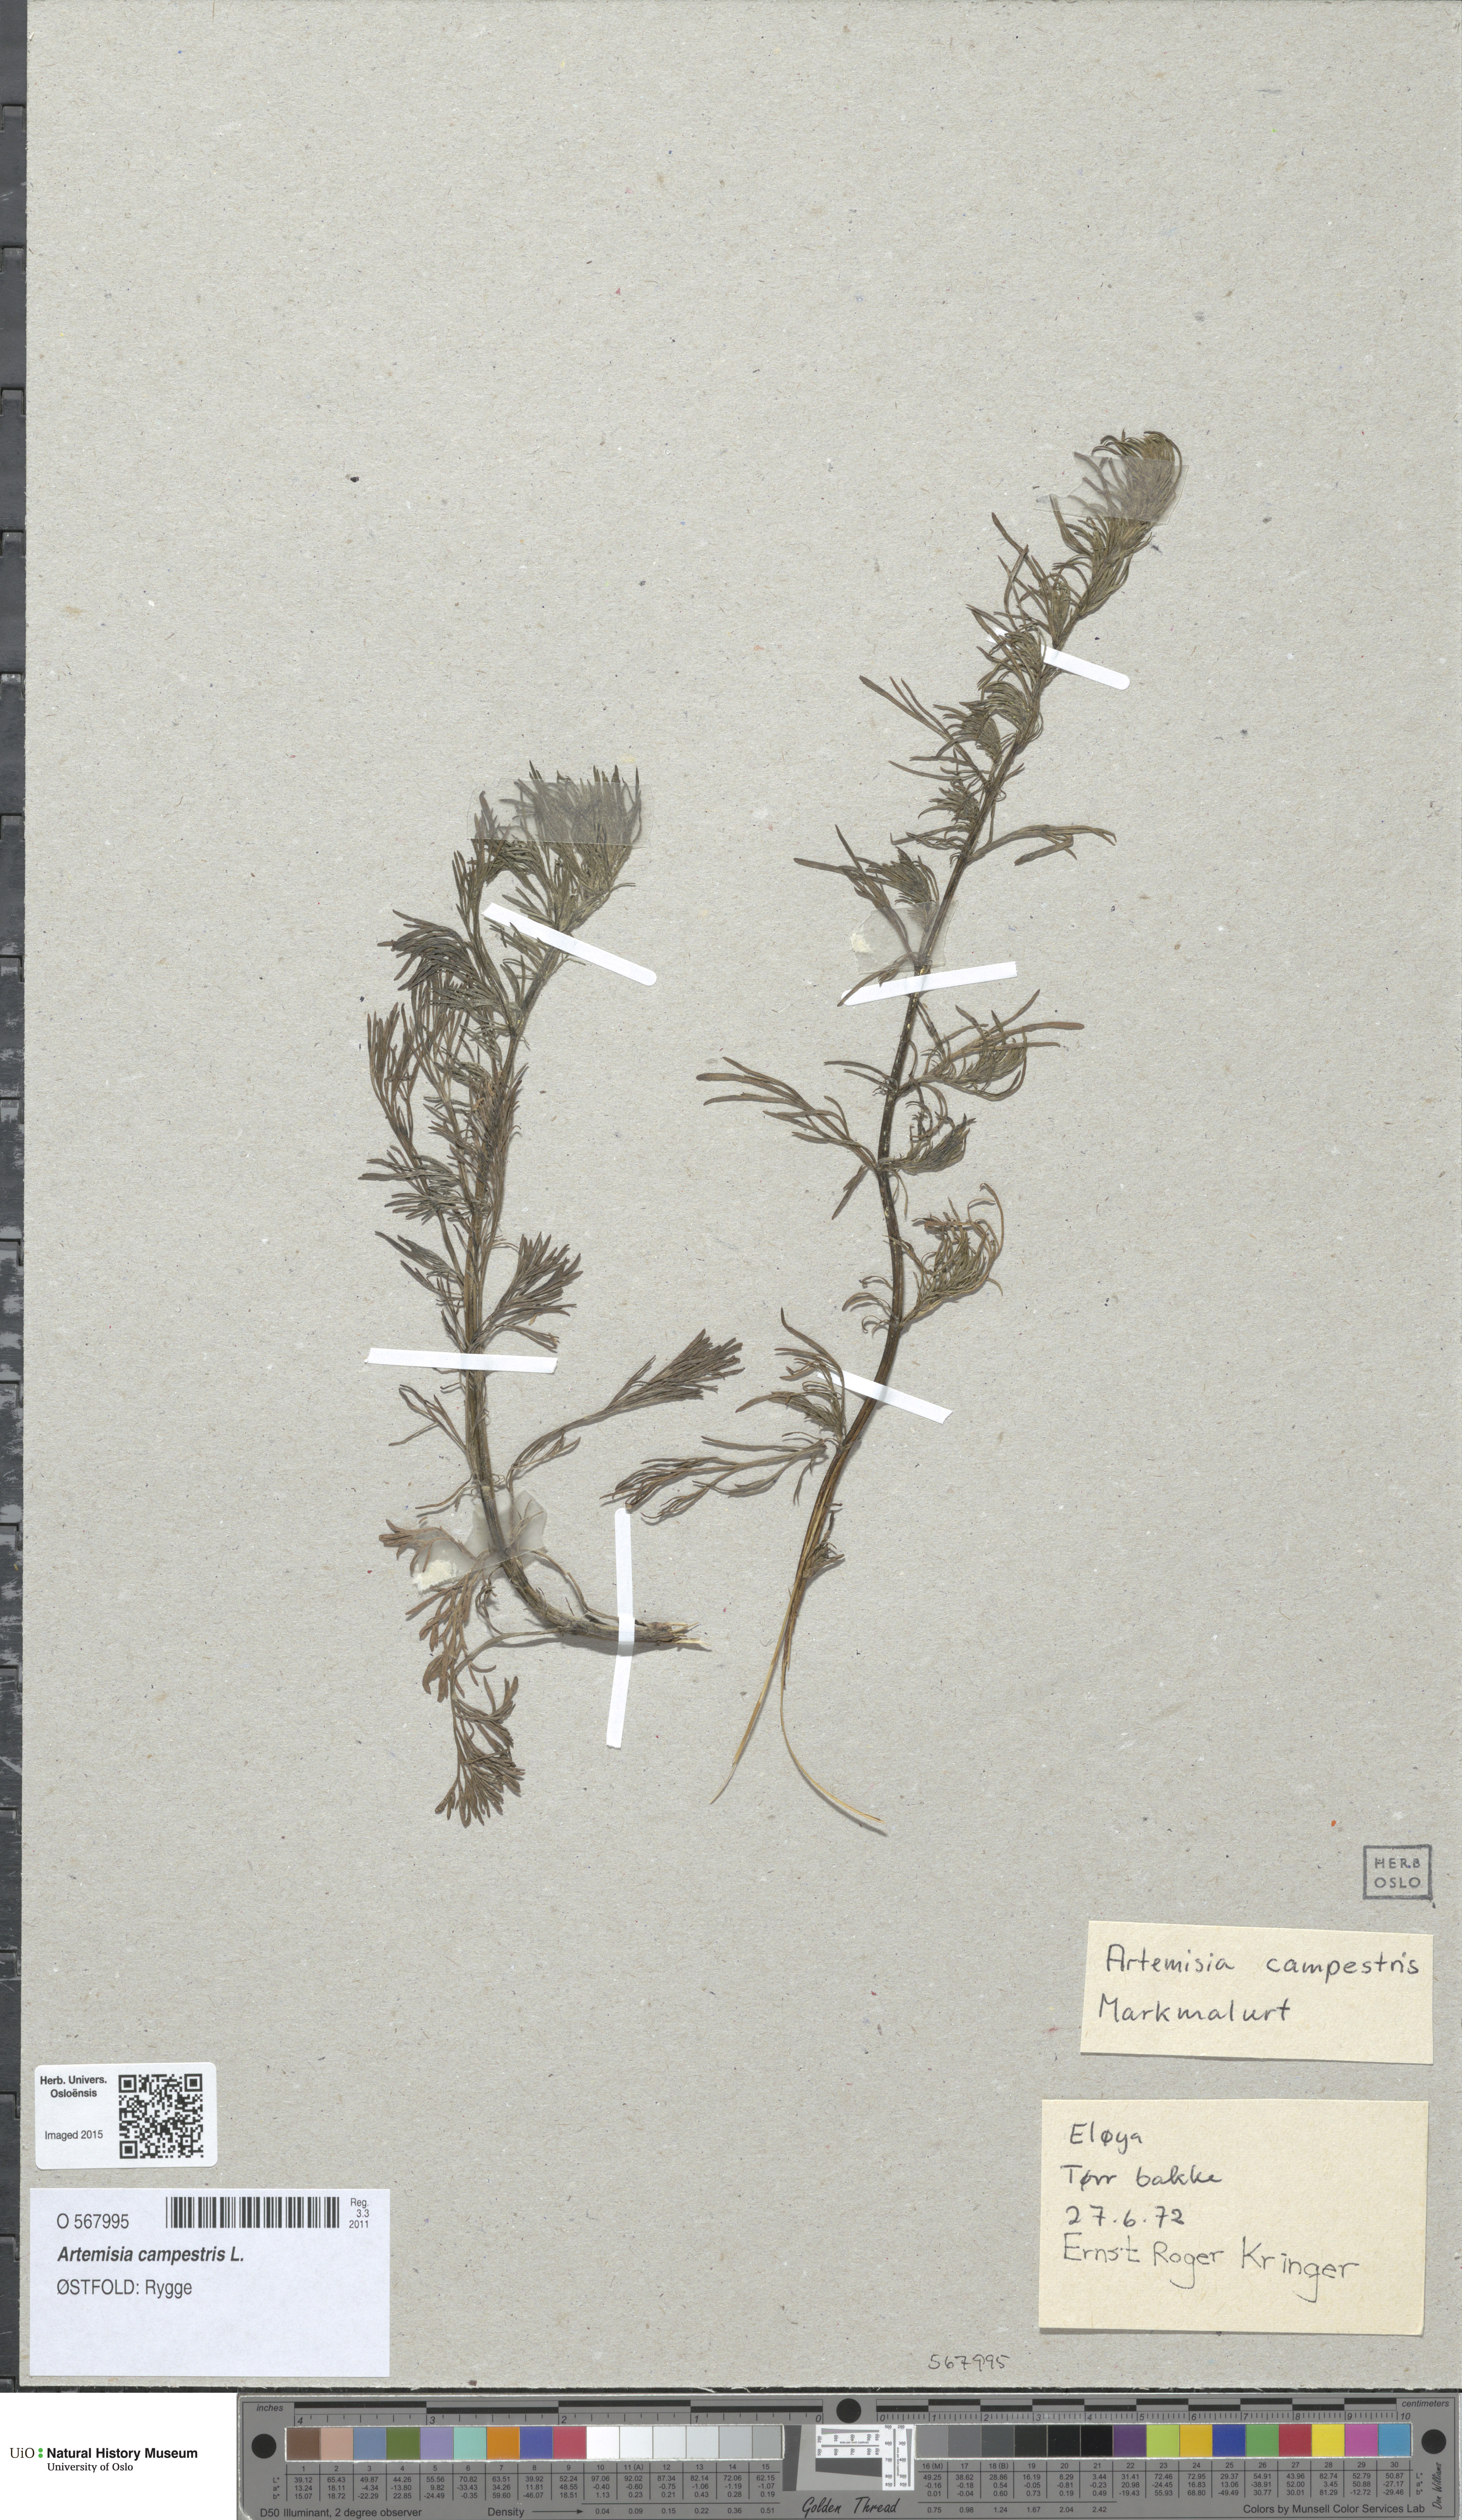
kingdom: Plantae
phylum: Tracheophyta
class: Magnoliopsida
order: Asterales
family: Asteraceae
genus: Artemisia
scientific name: Artemisia campestris
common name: Field wormwood
